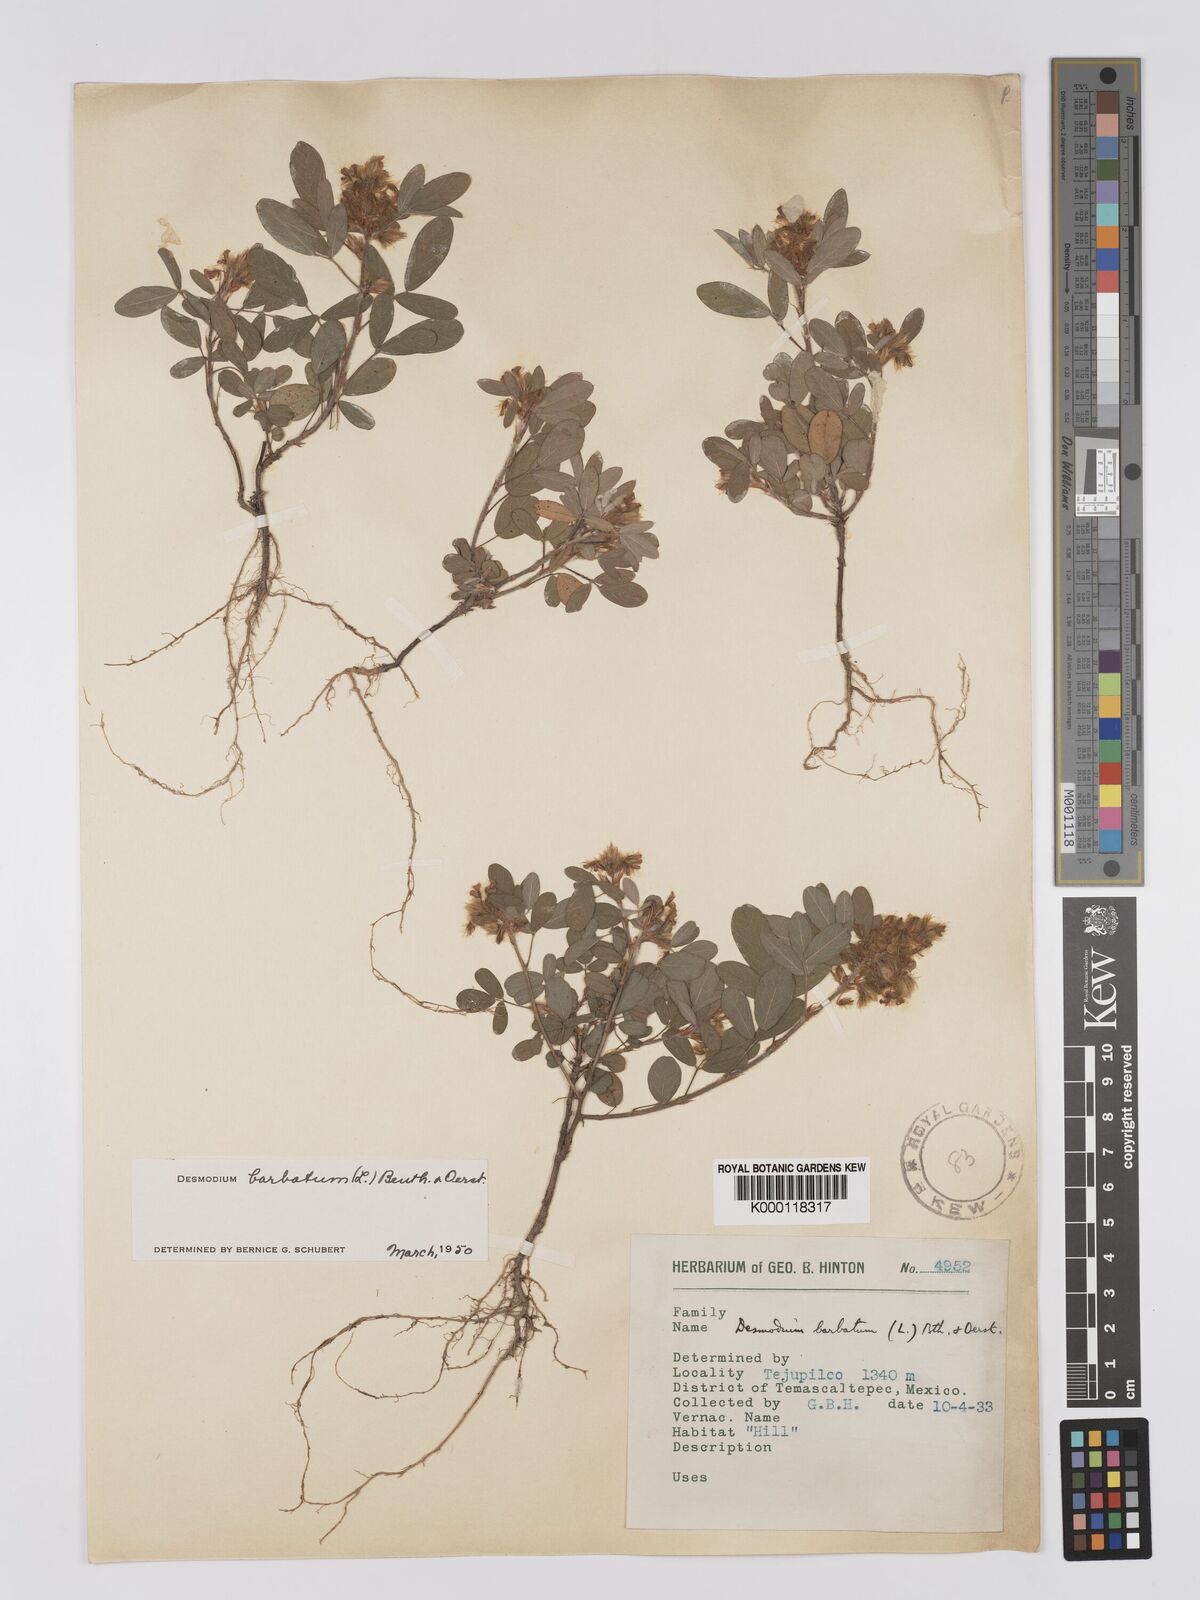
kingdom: Plantae
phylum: Tracheophyta
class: Magnoliopsida
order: Fabales
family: Fabaceae
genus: Grona
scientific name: Grona barbata
